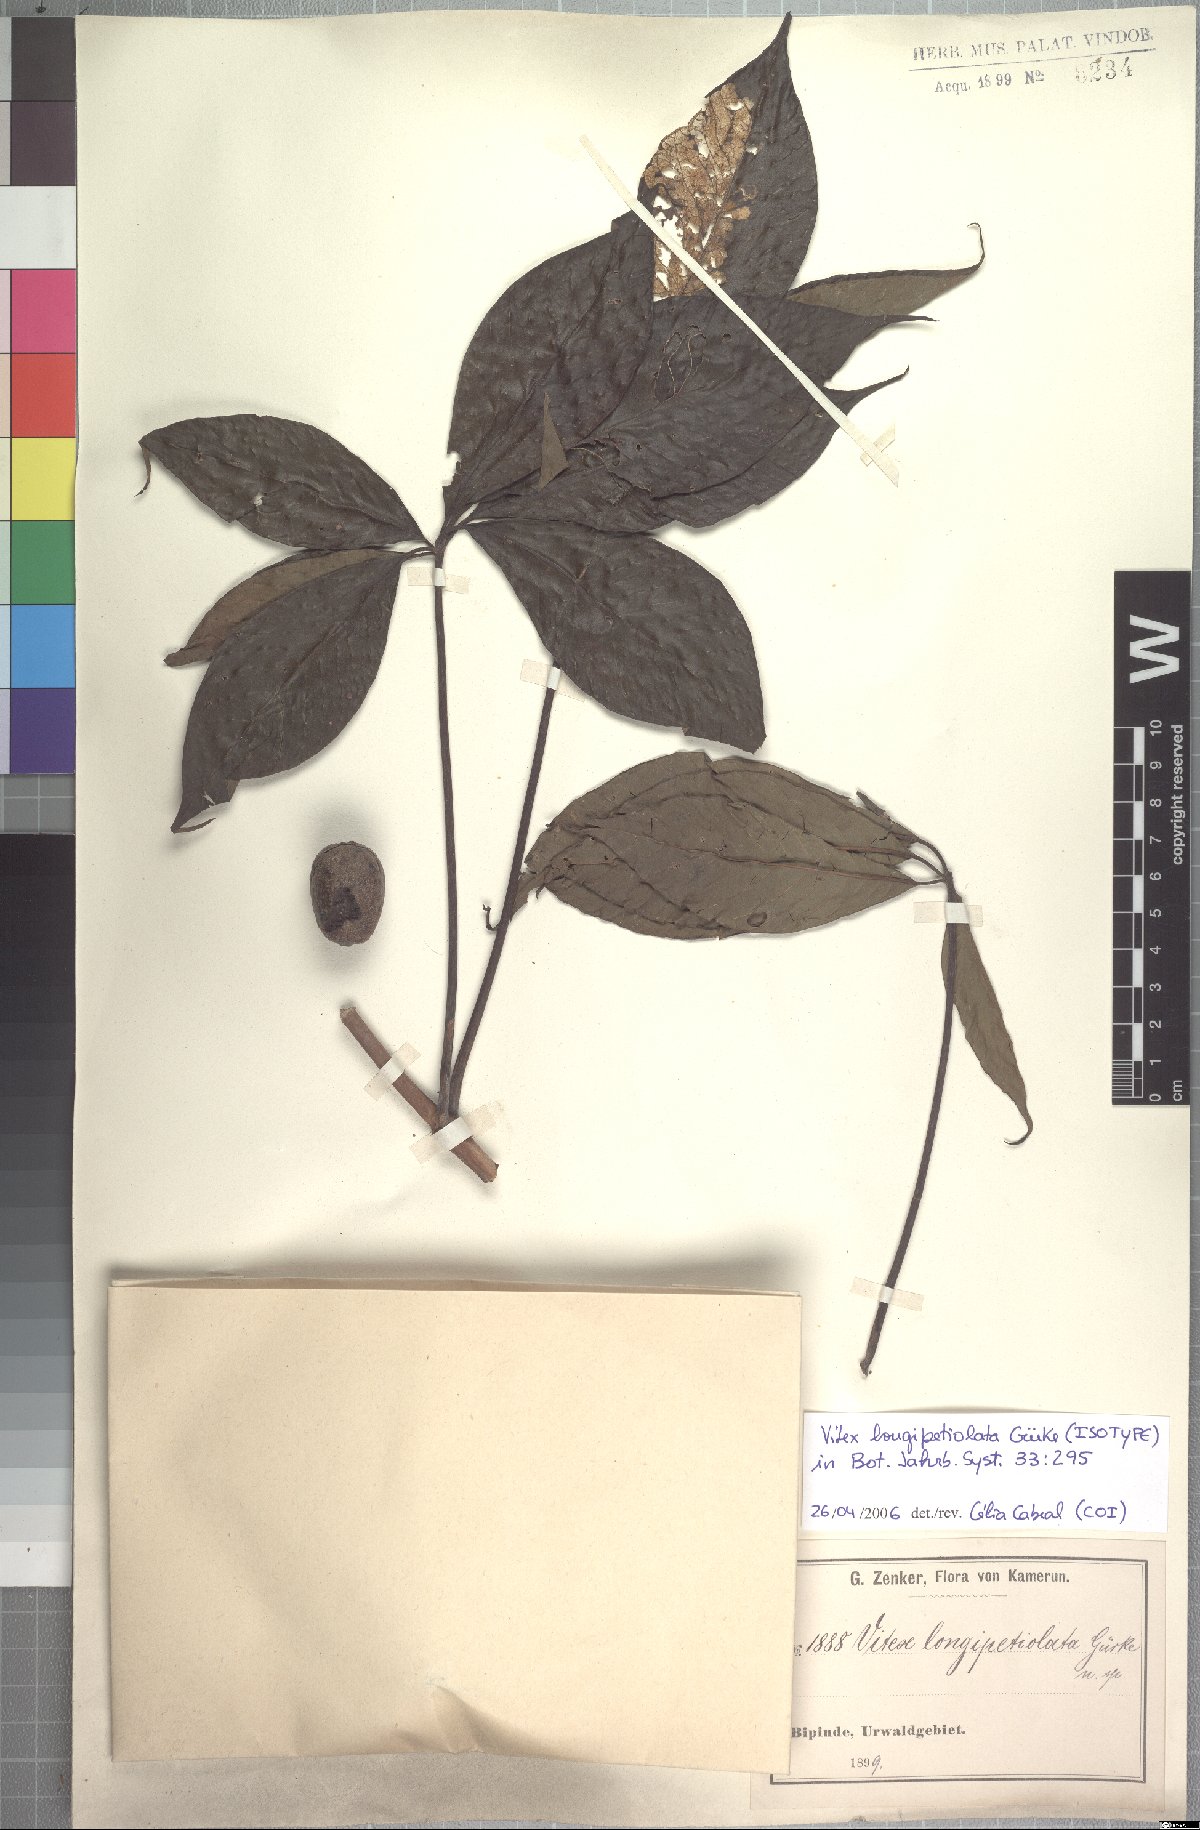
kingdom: Plantae
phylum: Tracheophyta
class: Magnoliopsida
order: Lamiales
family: Lamiaceae
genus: Vitex
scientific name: Vitex rivularis
